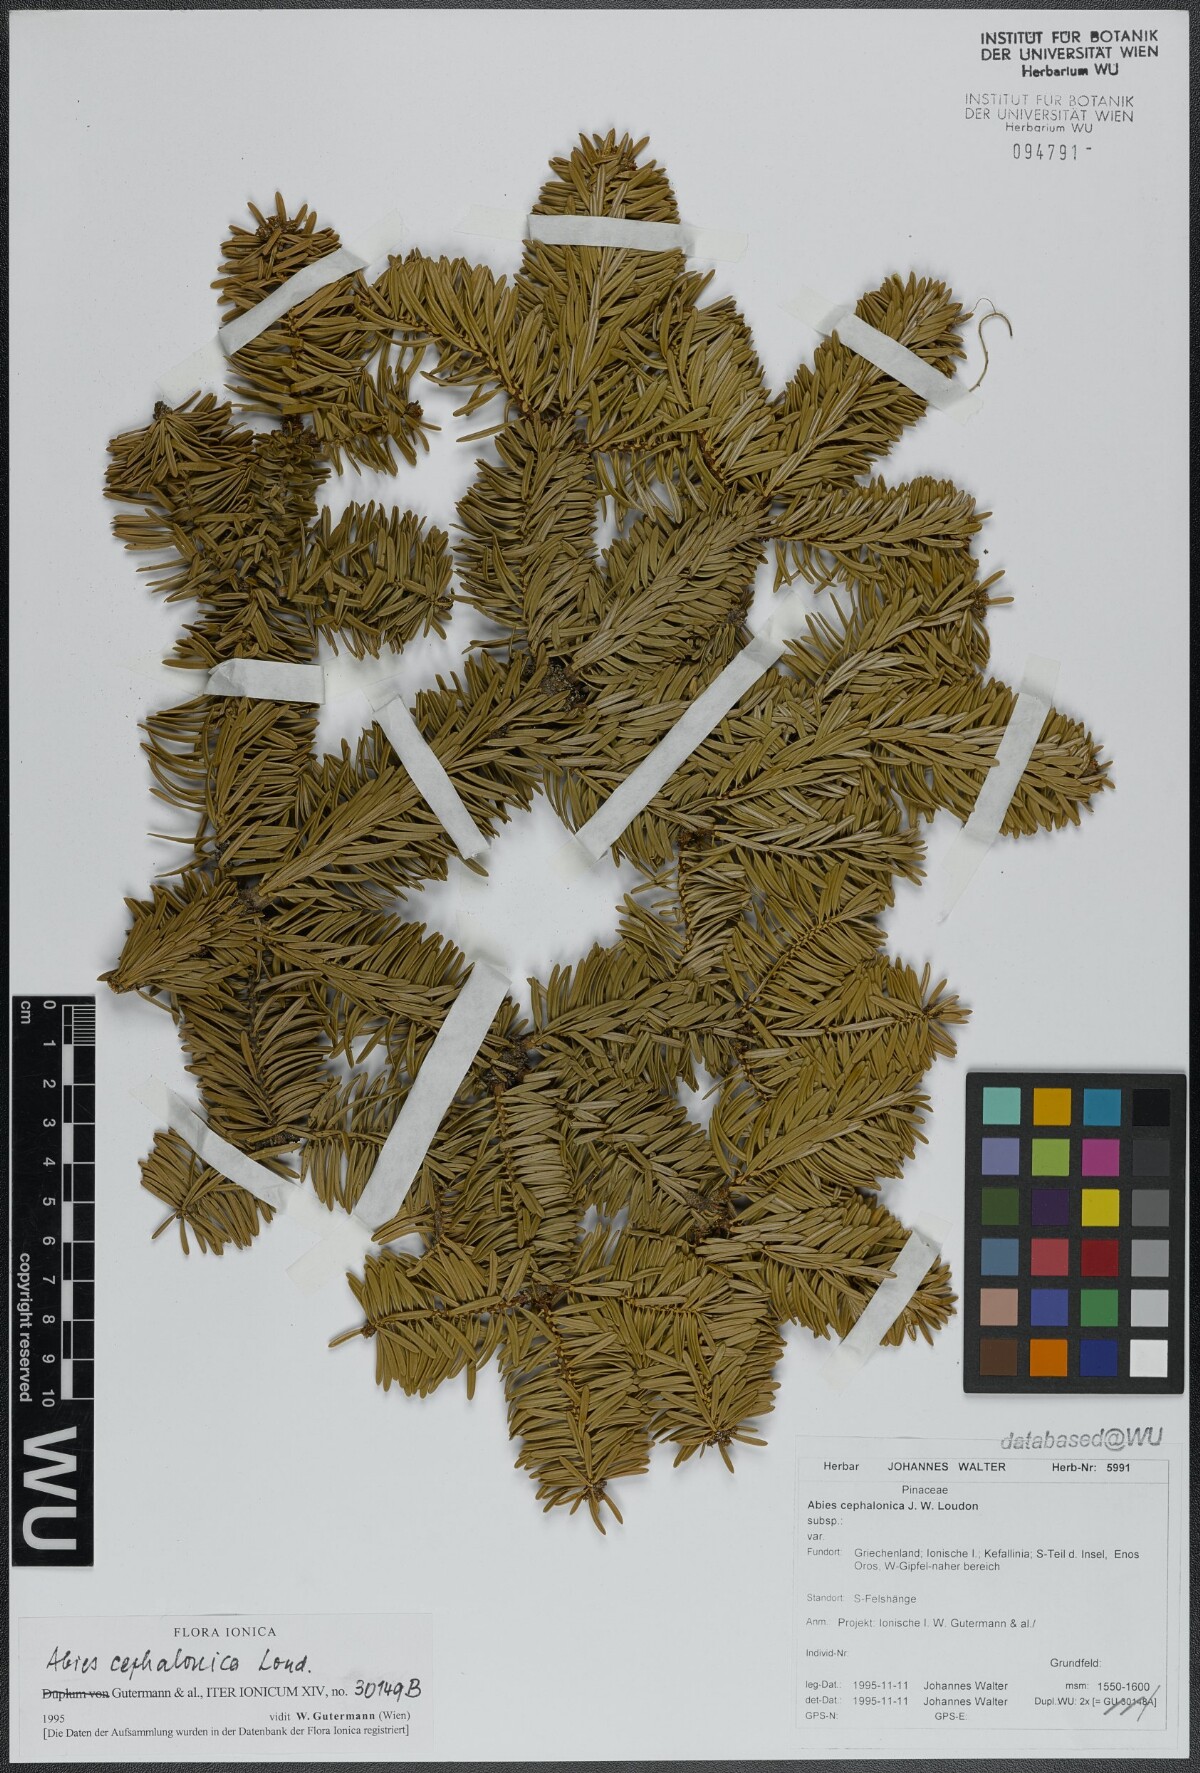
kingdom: Plantae
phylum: Tracheophyta
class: Pinopsida
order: Pinales
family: Pinaceae
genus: Abies
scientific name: Abies cephalonica
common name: Greek fir
